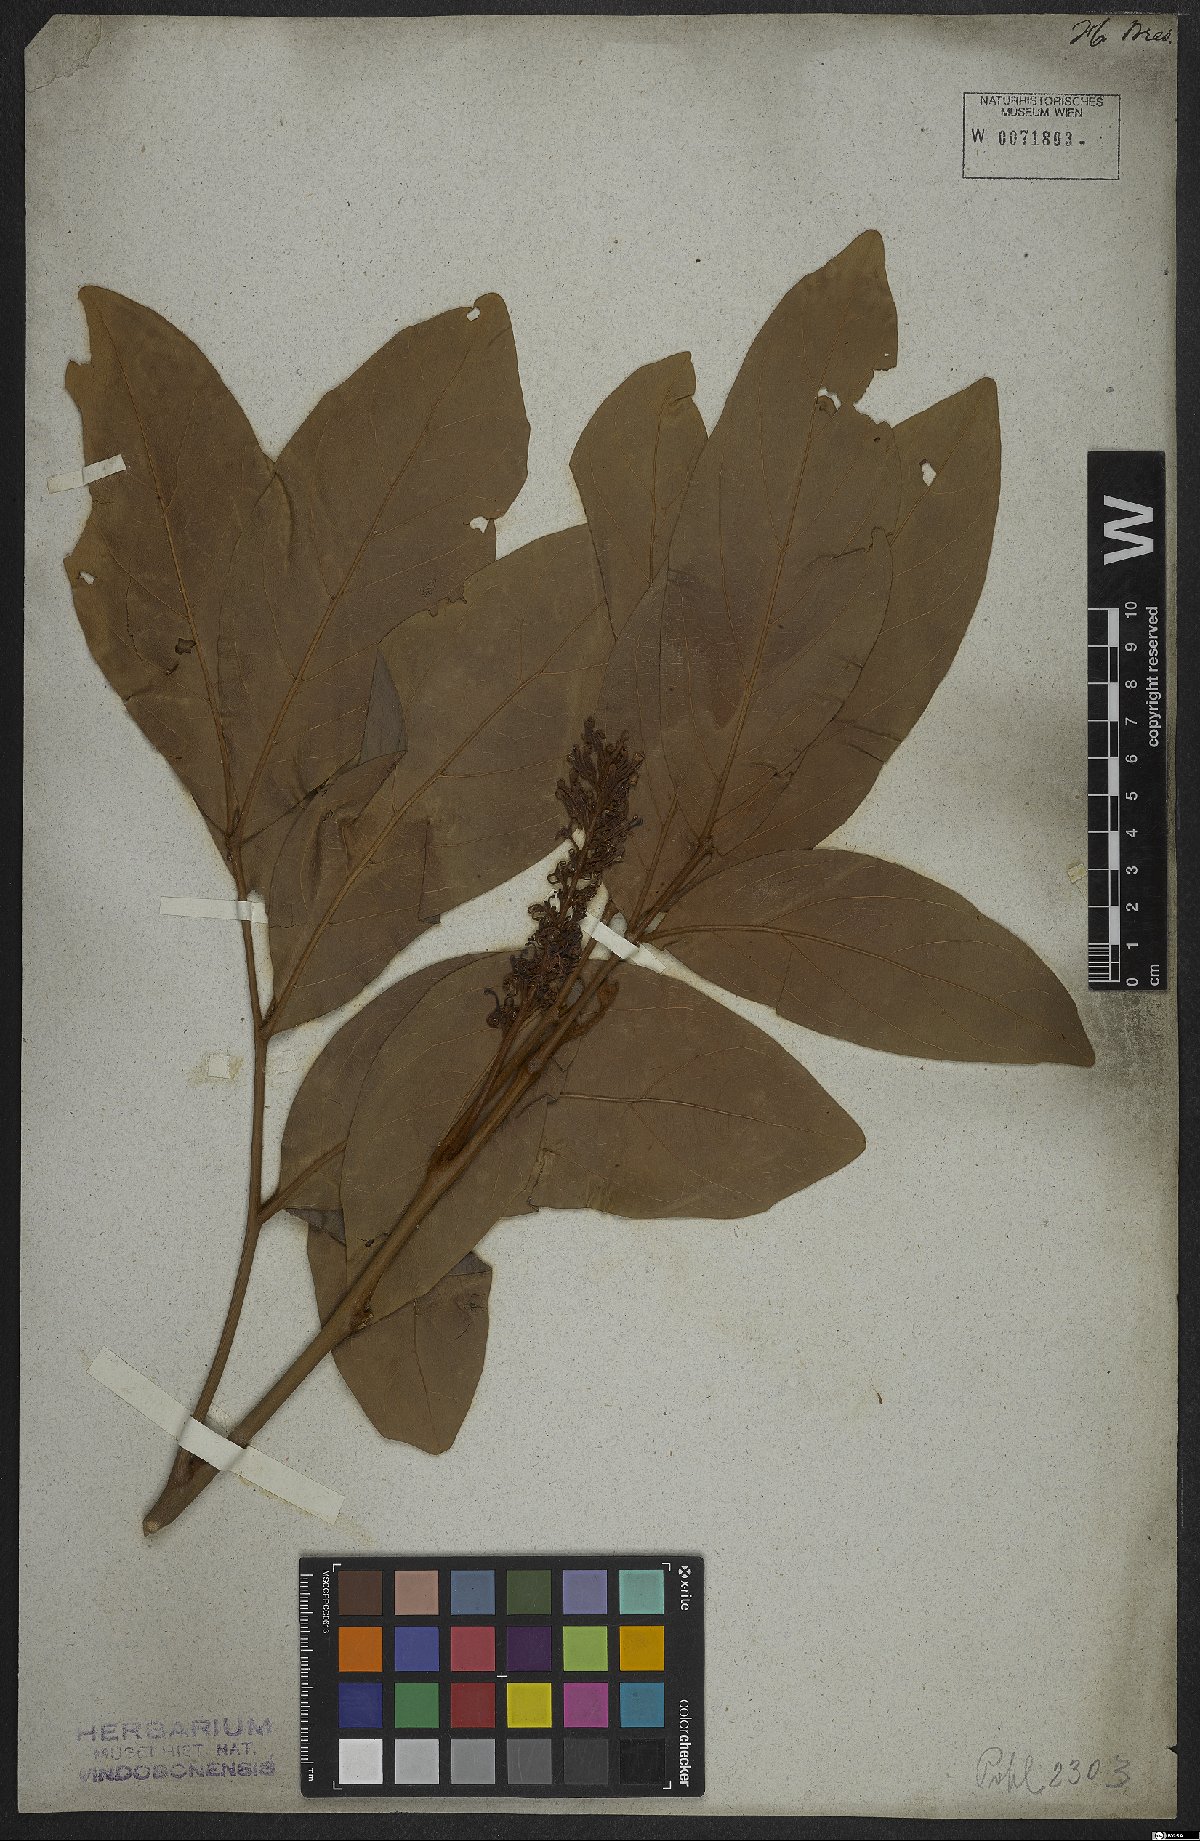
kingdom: Plantae
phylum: Tracheophyta
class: Magnoliopsida
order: Proteales
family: Proteaceae
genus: Euplassa
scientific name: Euplassa inaequalis
